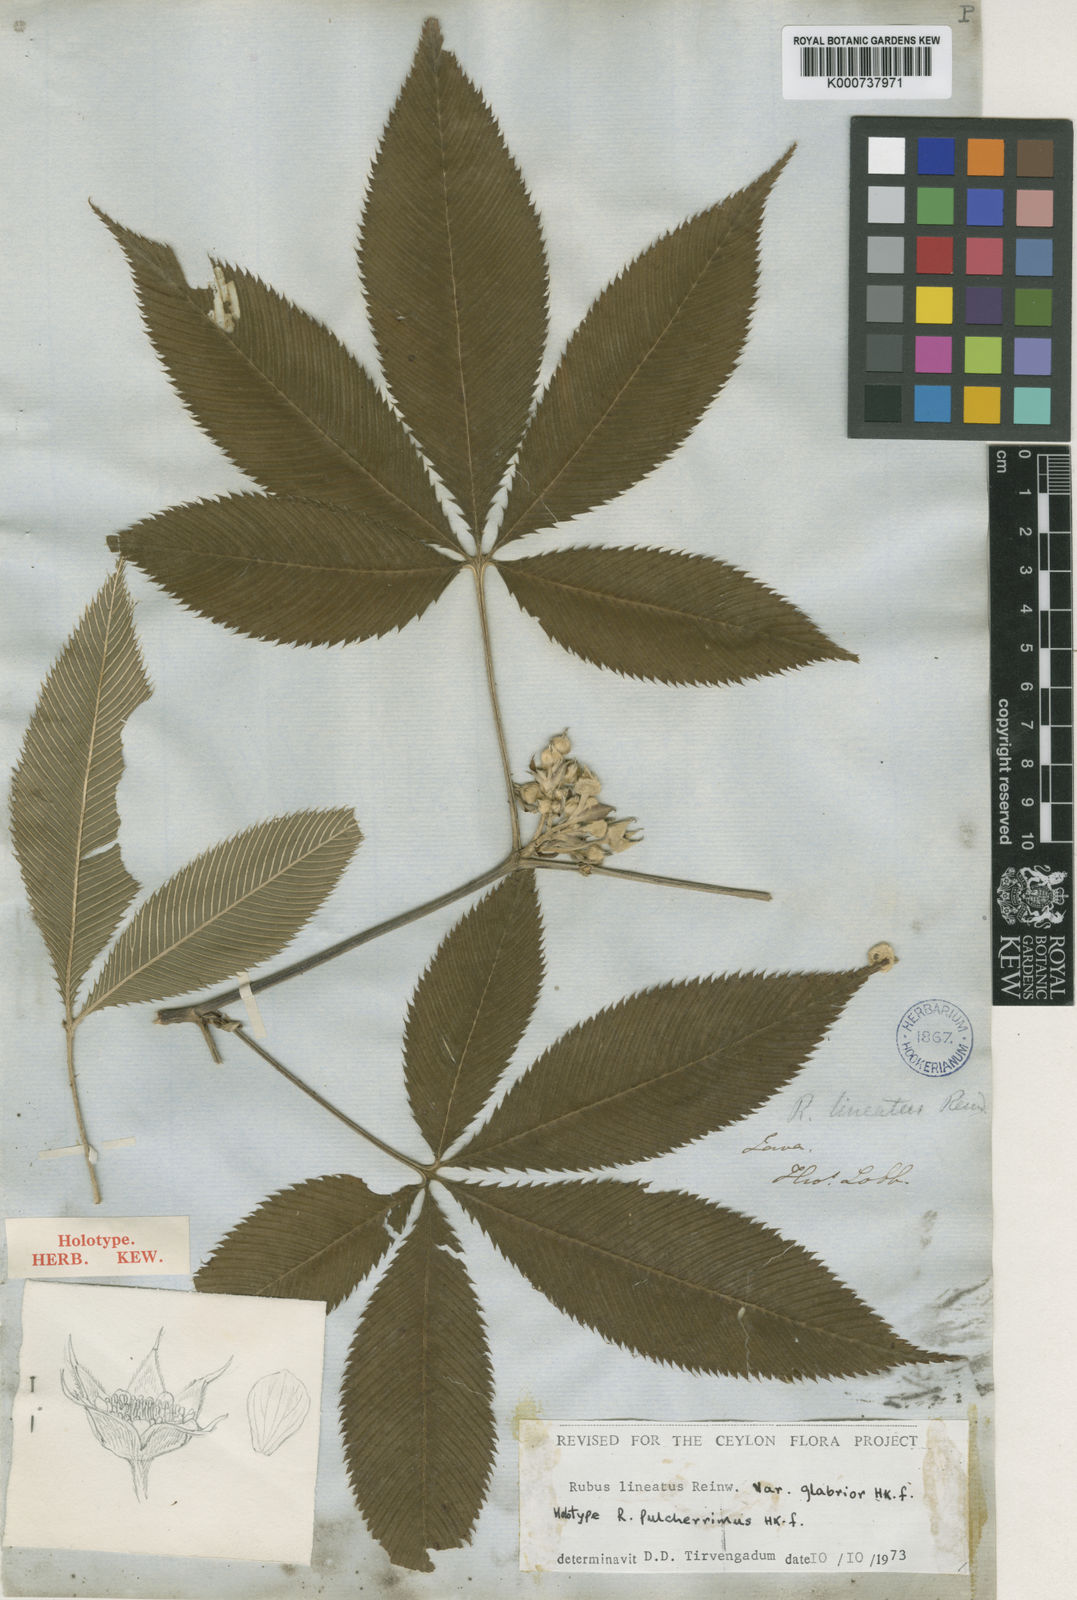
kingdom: Plantae
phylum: Tracheophyta
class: Magnoliopsida
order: Rosales
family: Rosaceae
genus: Rubus
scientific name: Rubus
